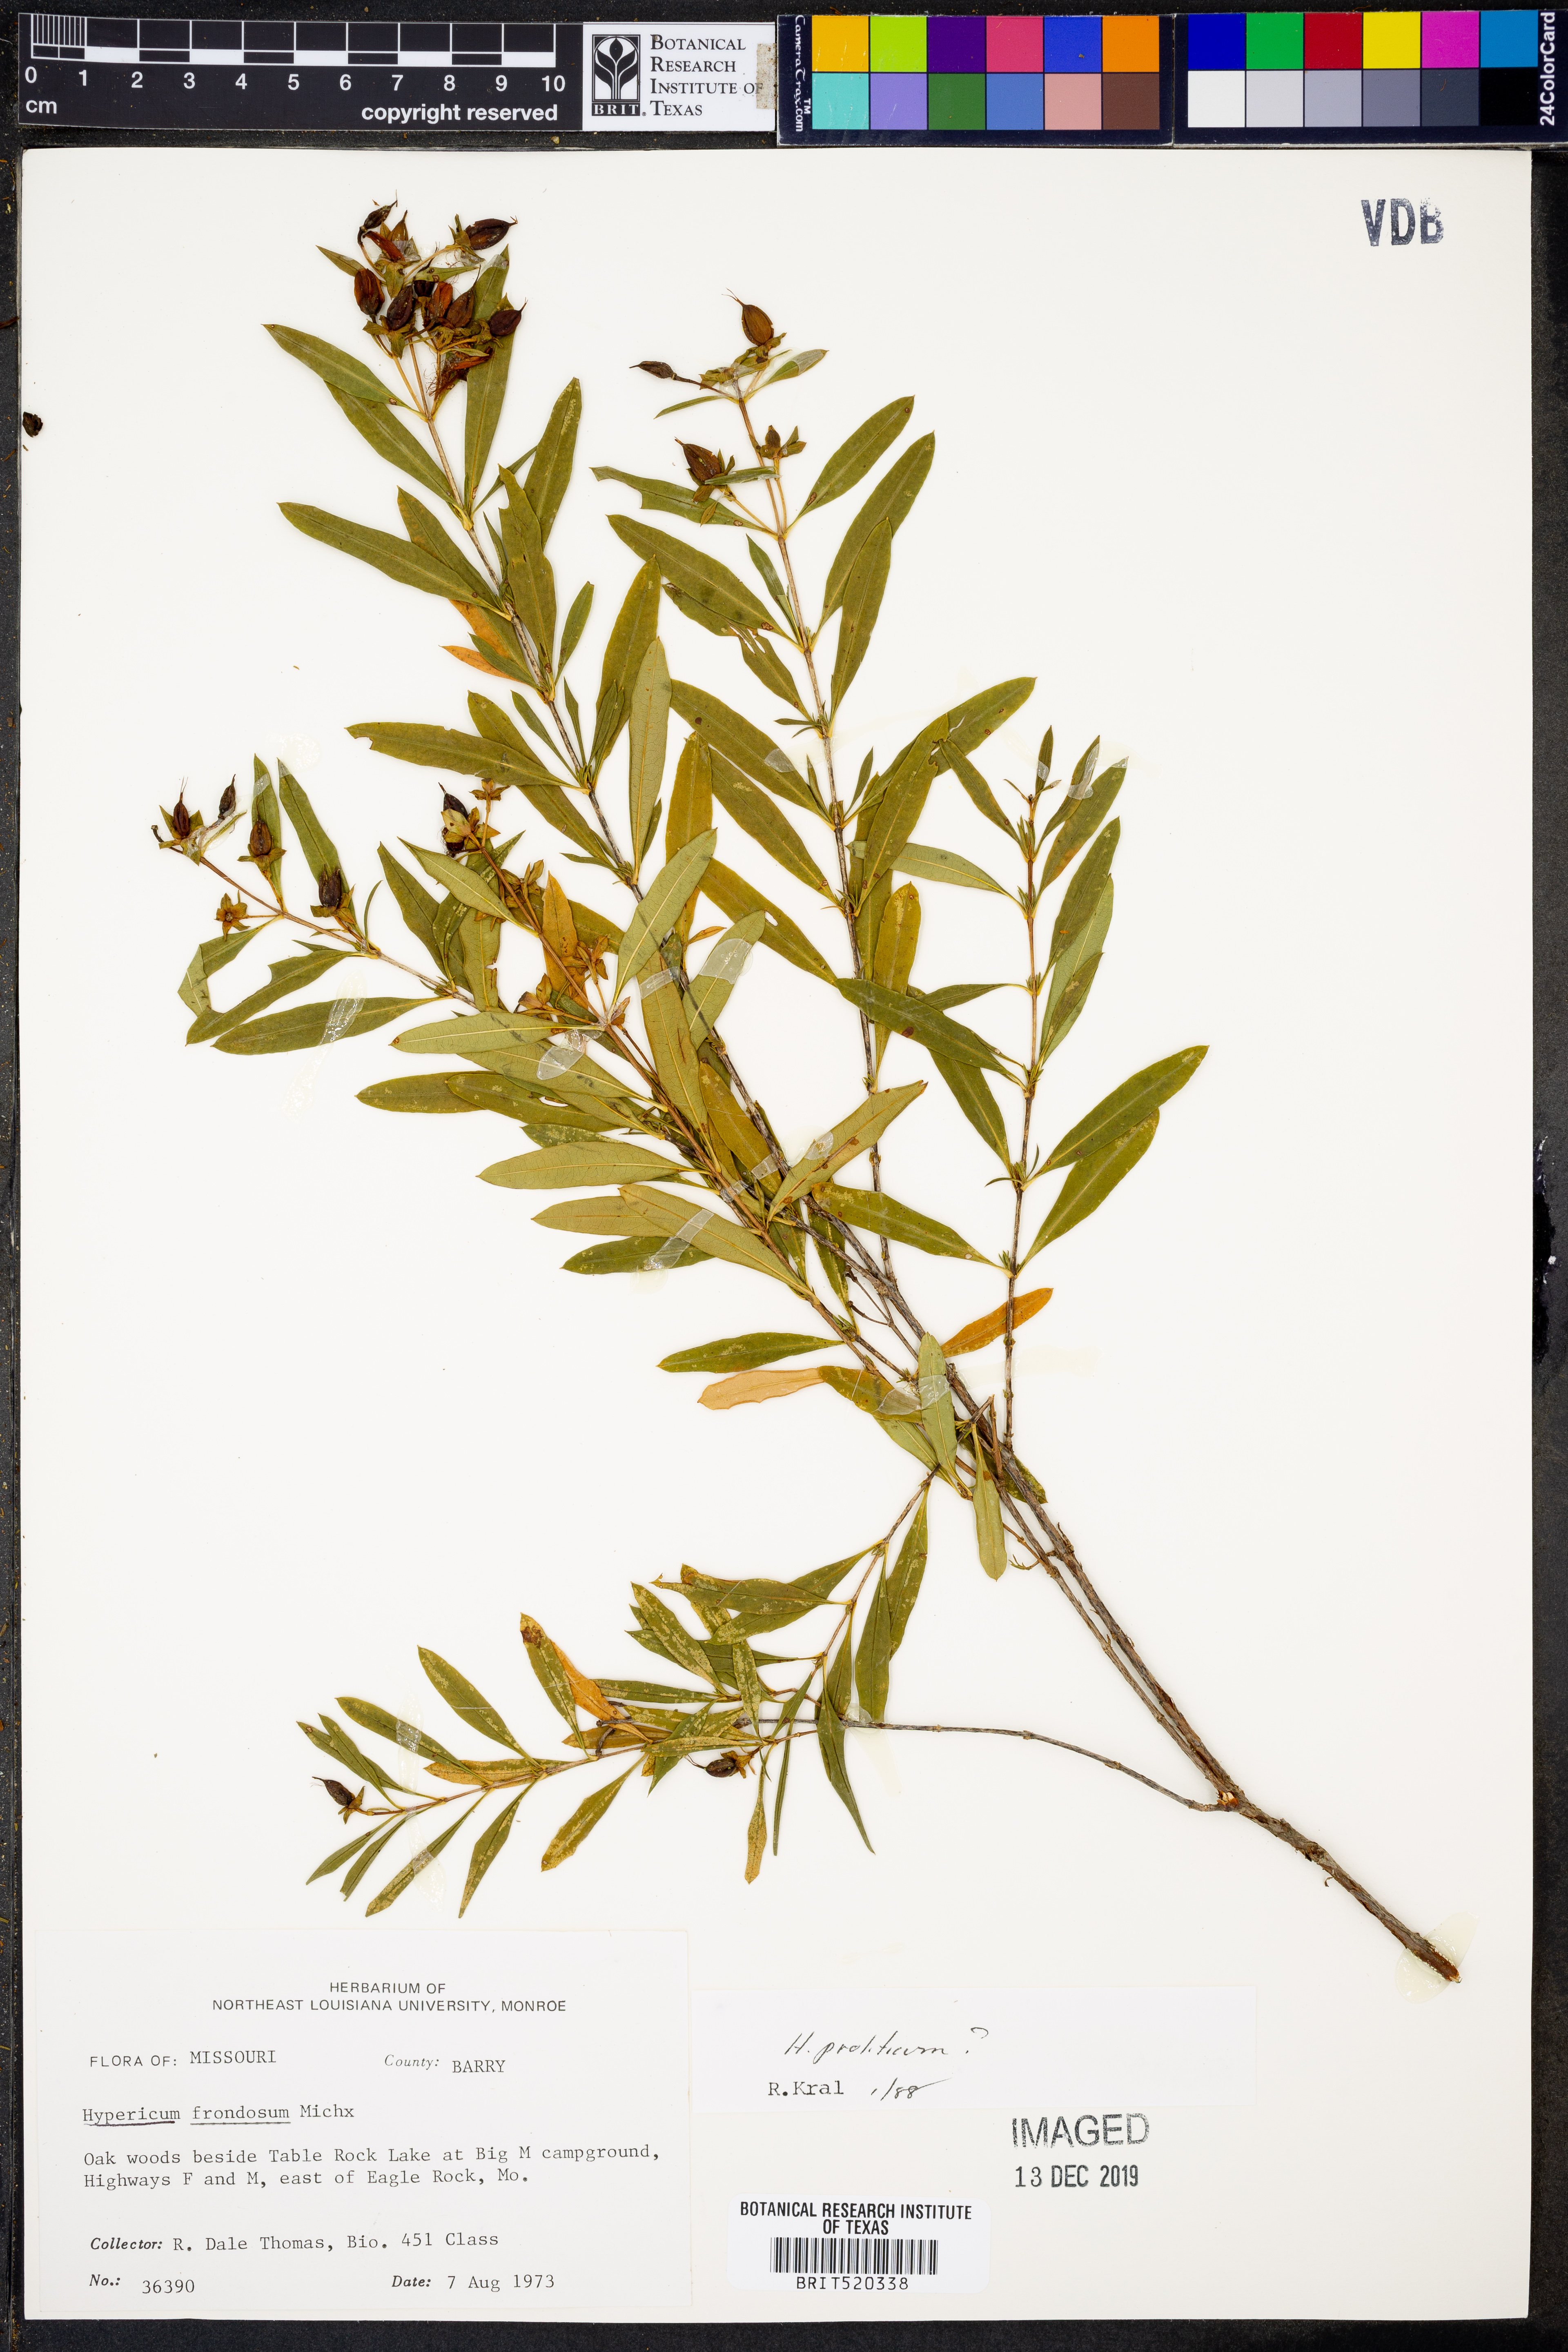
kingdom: Plantae
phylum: Tracheophyta
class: Magnoliopsida
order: Malpighiales
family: Hypericaceae
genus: Hypericum
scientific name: Hypericum frondosum
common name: Golden st. john's-wort
